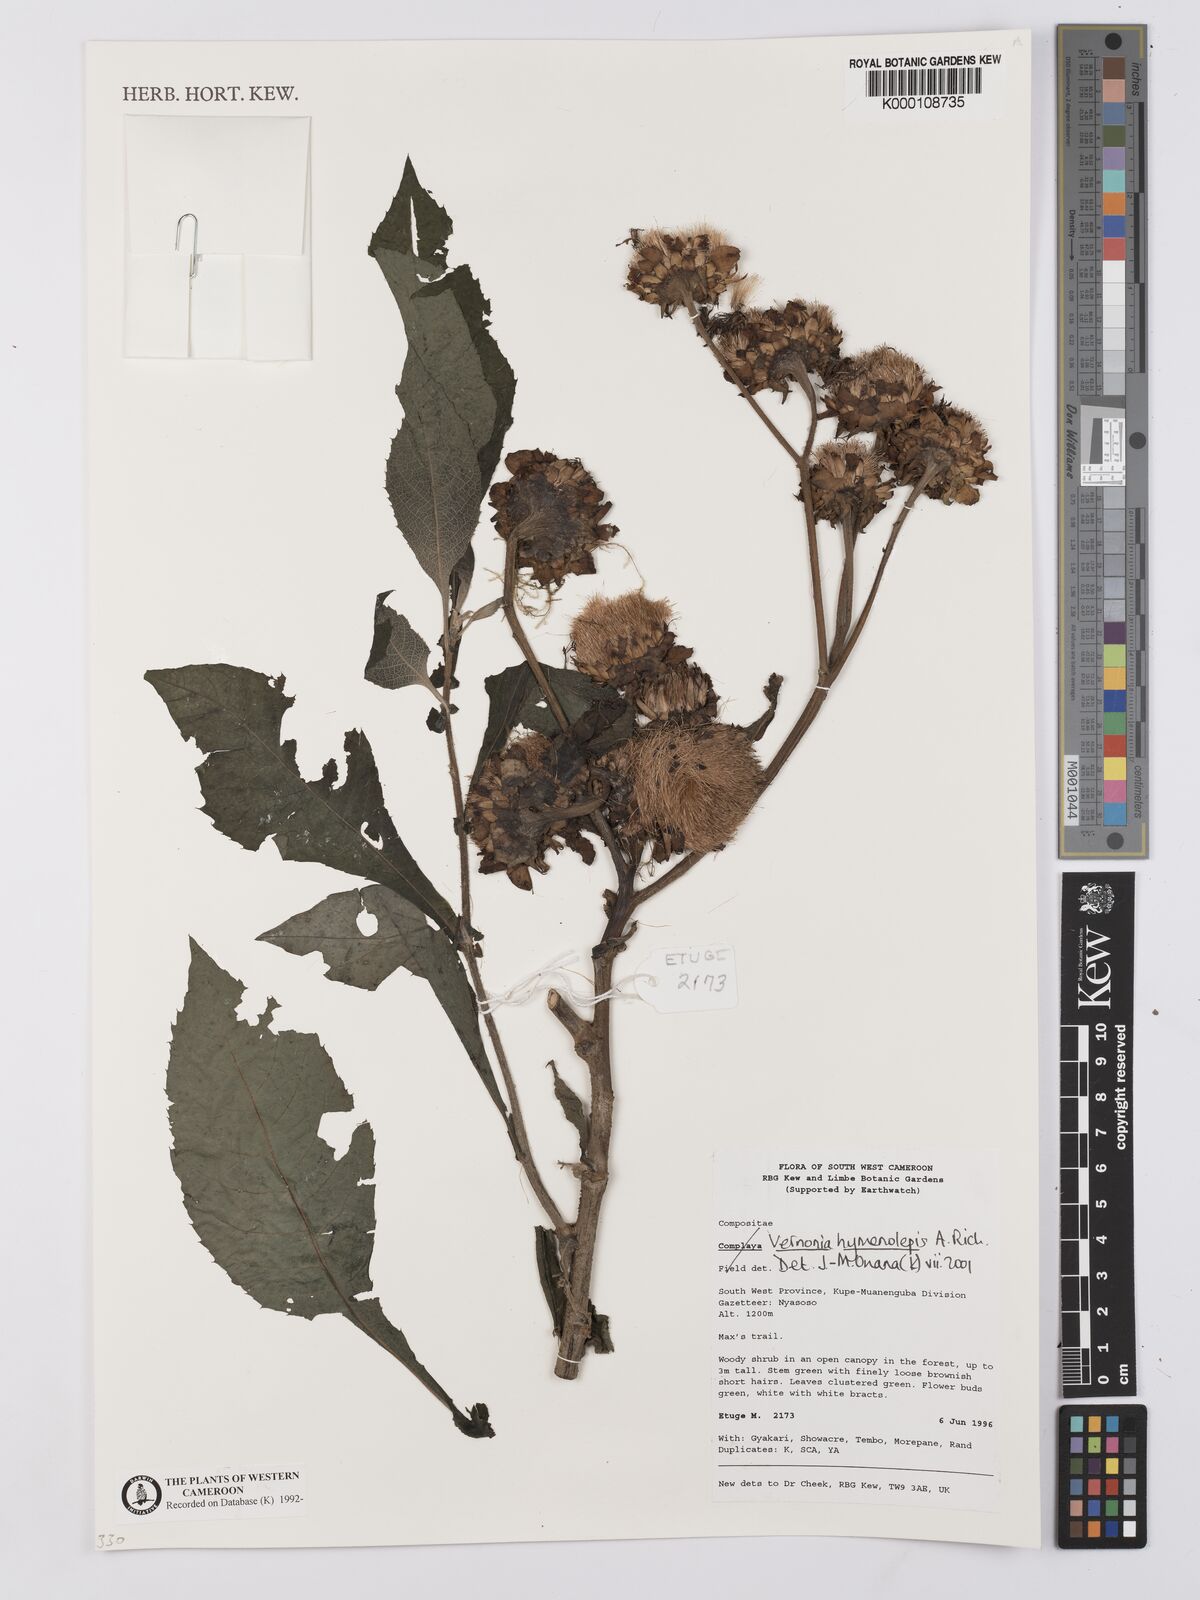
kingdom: Plantae
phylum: Tracheophyta
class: Magnoliopsida
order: Asterales
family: Asteraceae
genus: Baccharoides
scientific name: Baccharoides hymenolepis
